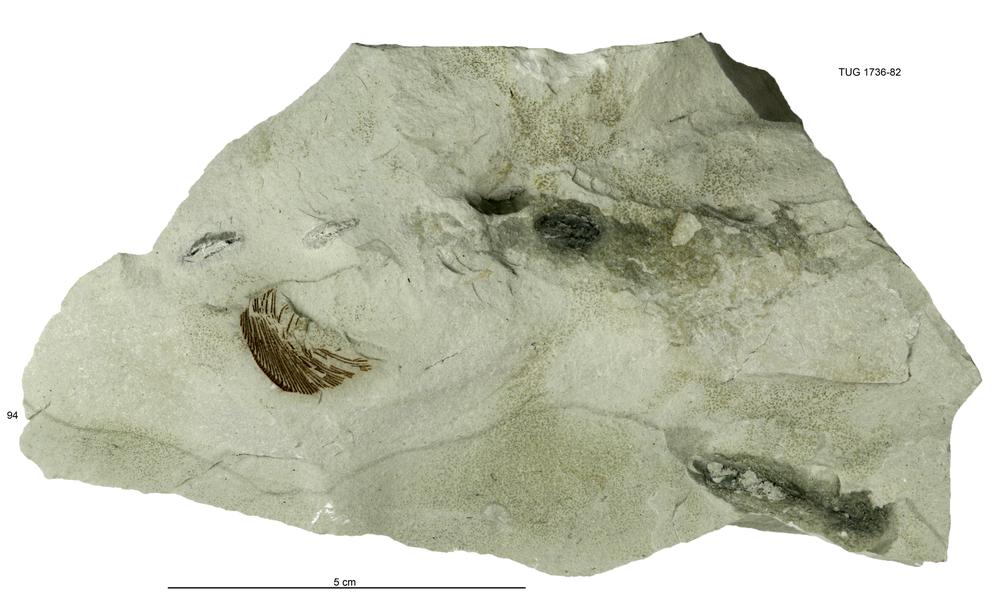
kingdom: Animalia
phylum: Echinodermata
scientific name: Echinodermata
